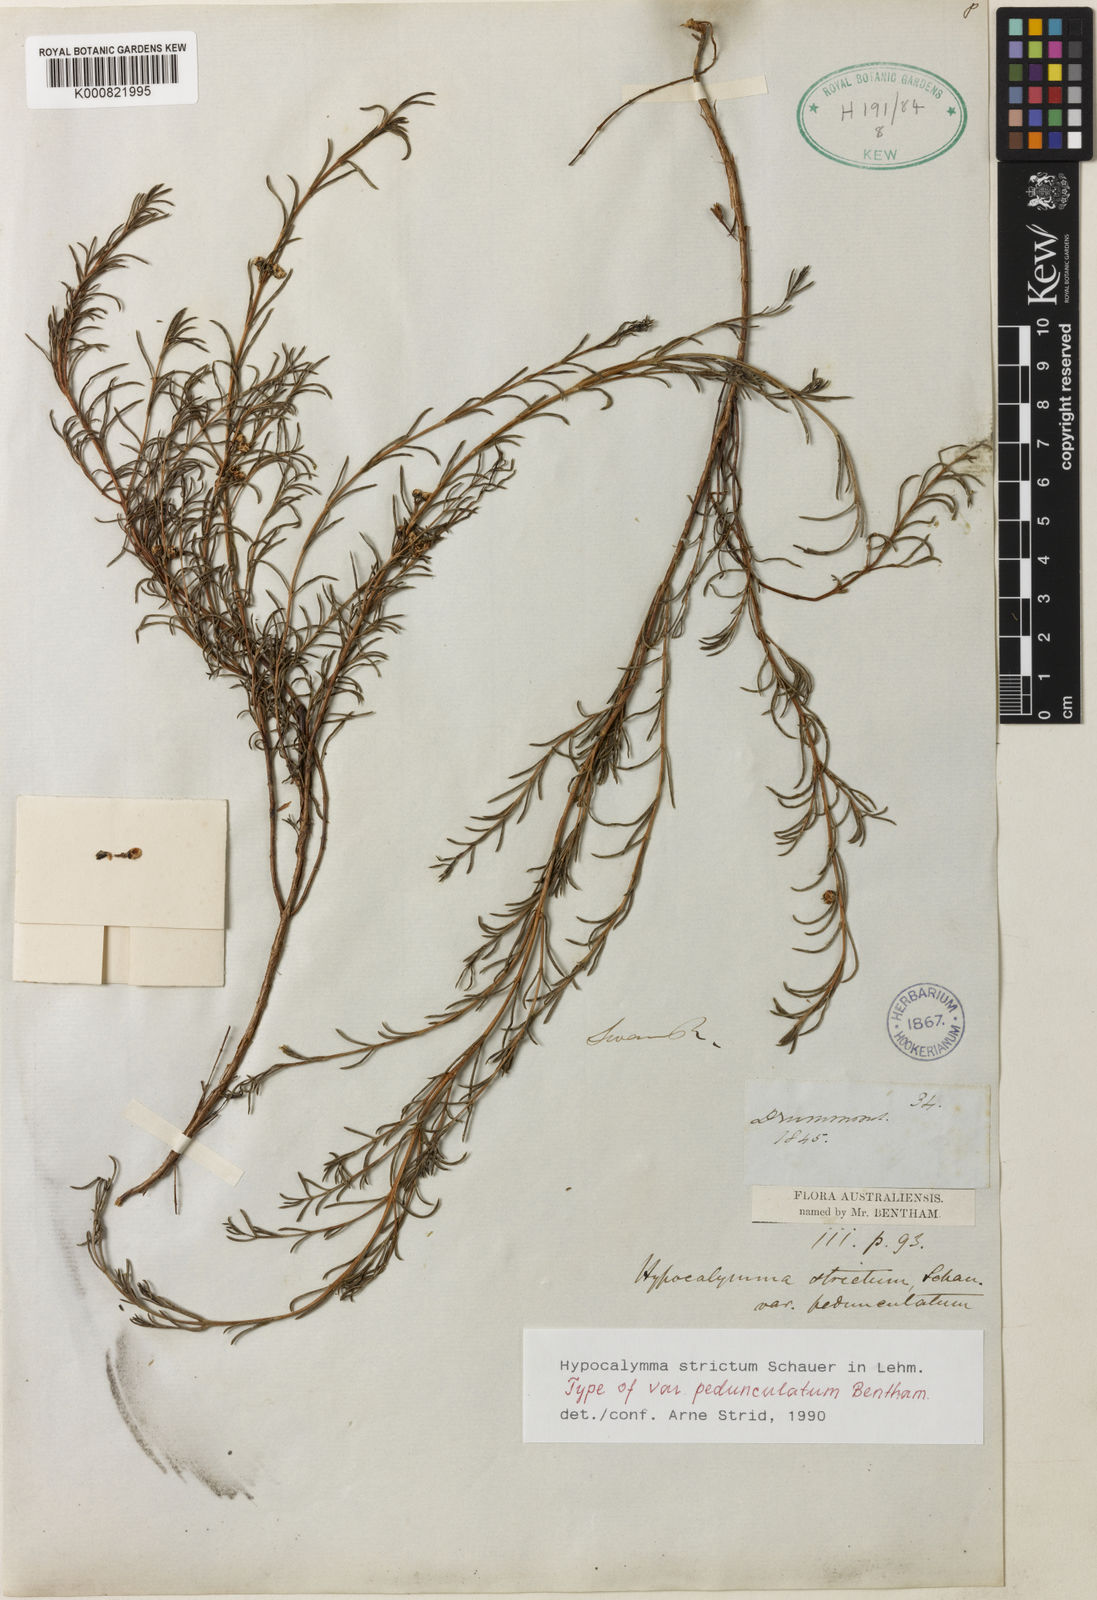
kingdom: Plantae
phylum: Tracheophyta
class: Magnoliopsida
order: Myrtales
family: Myrtaceae
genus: Hypocalymma
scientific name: Hypocalymma strictum
